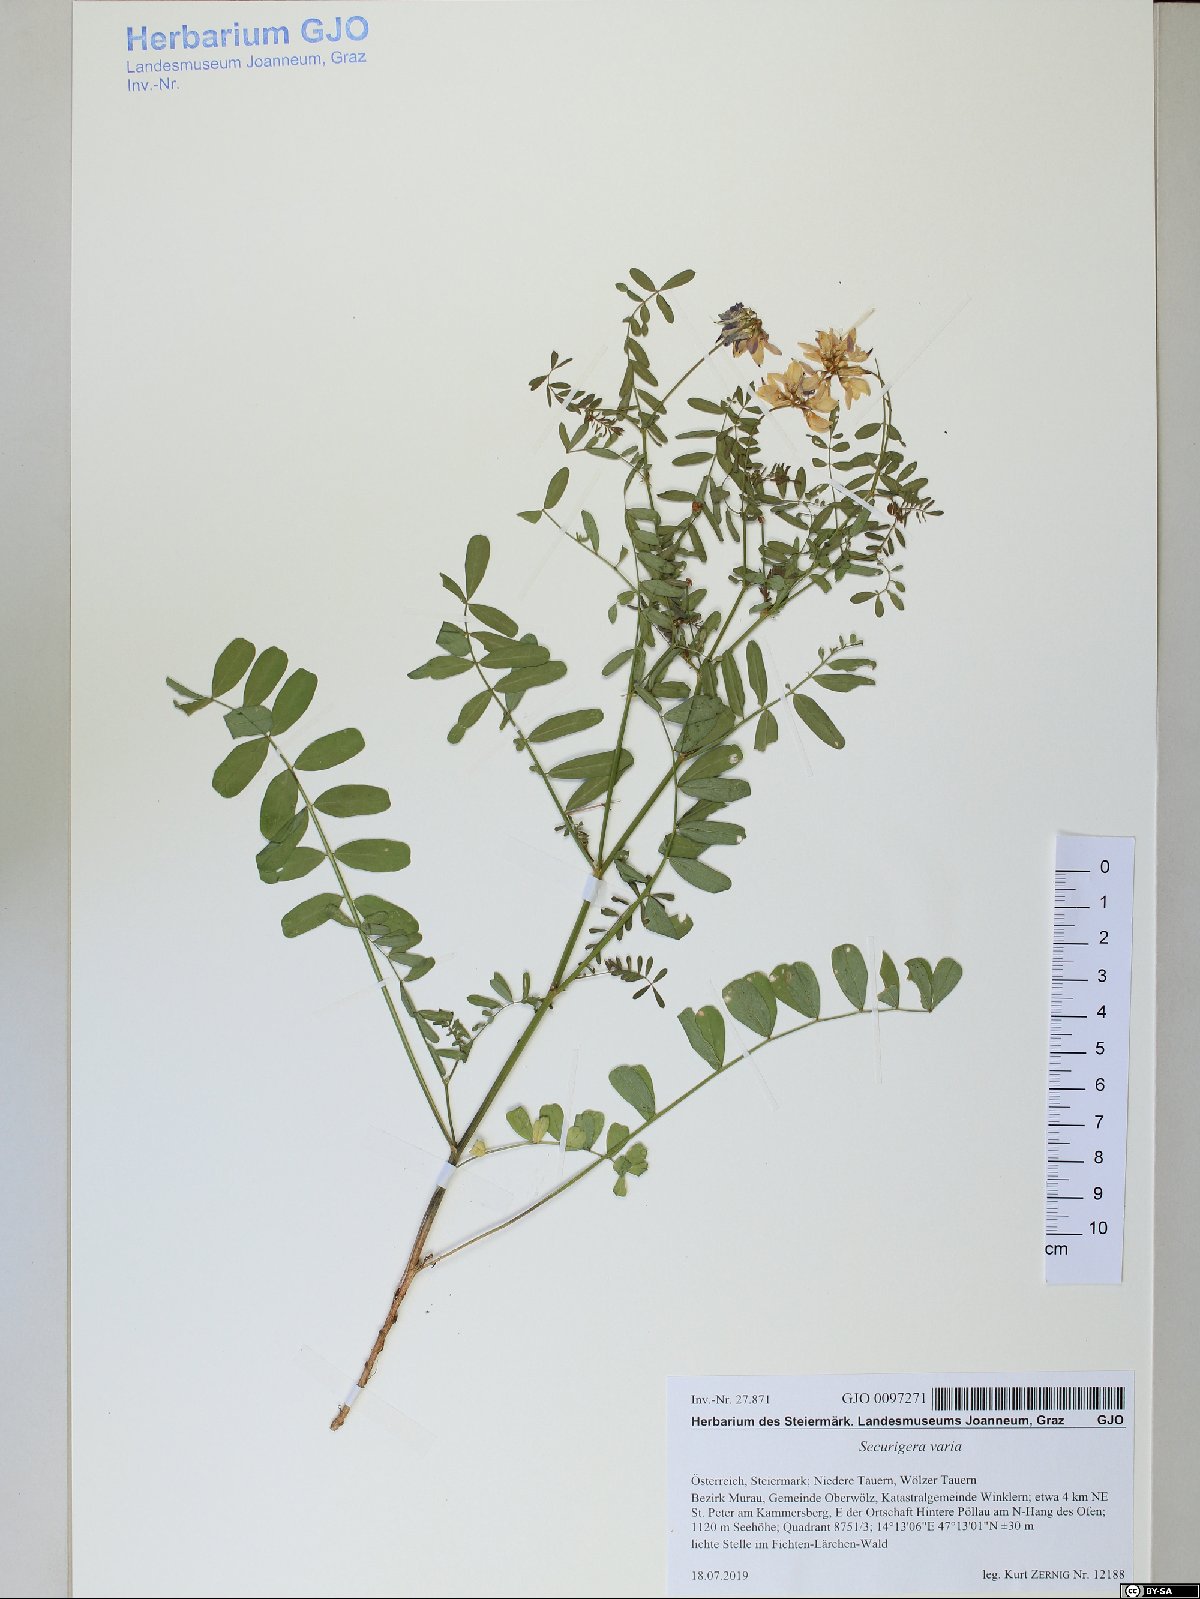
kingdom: Plantae
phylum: Tracheophyta
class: Magnoliopsida
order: Fabales
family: Fabaceae
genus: Coronilla
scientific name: Coronilla varia
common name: Crownvetch
